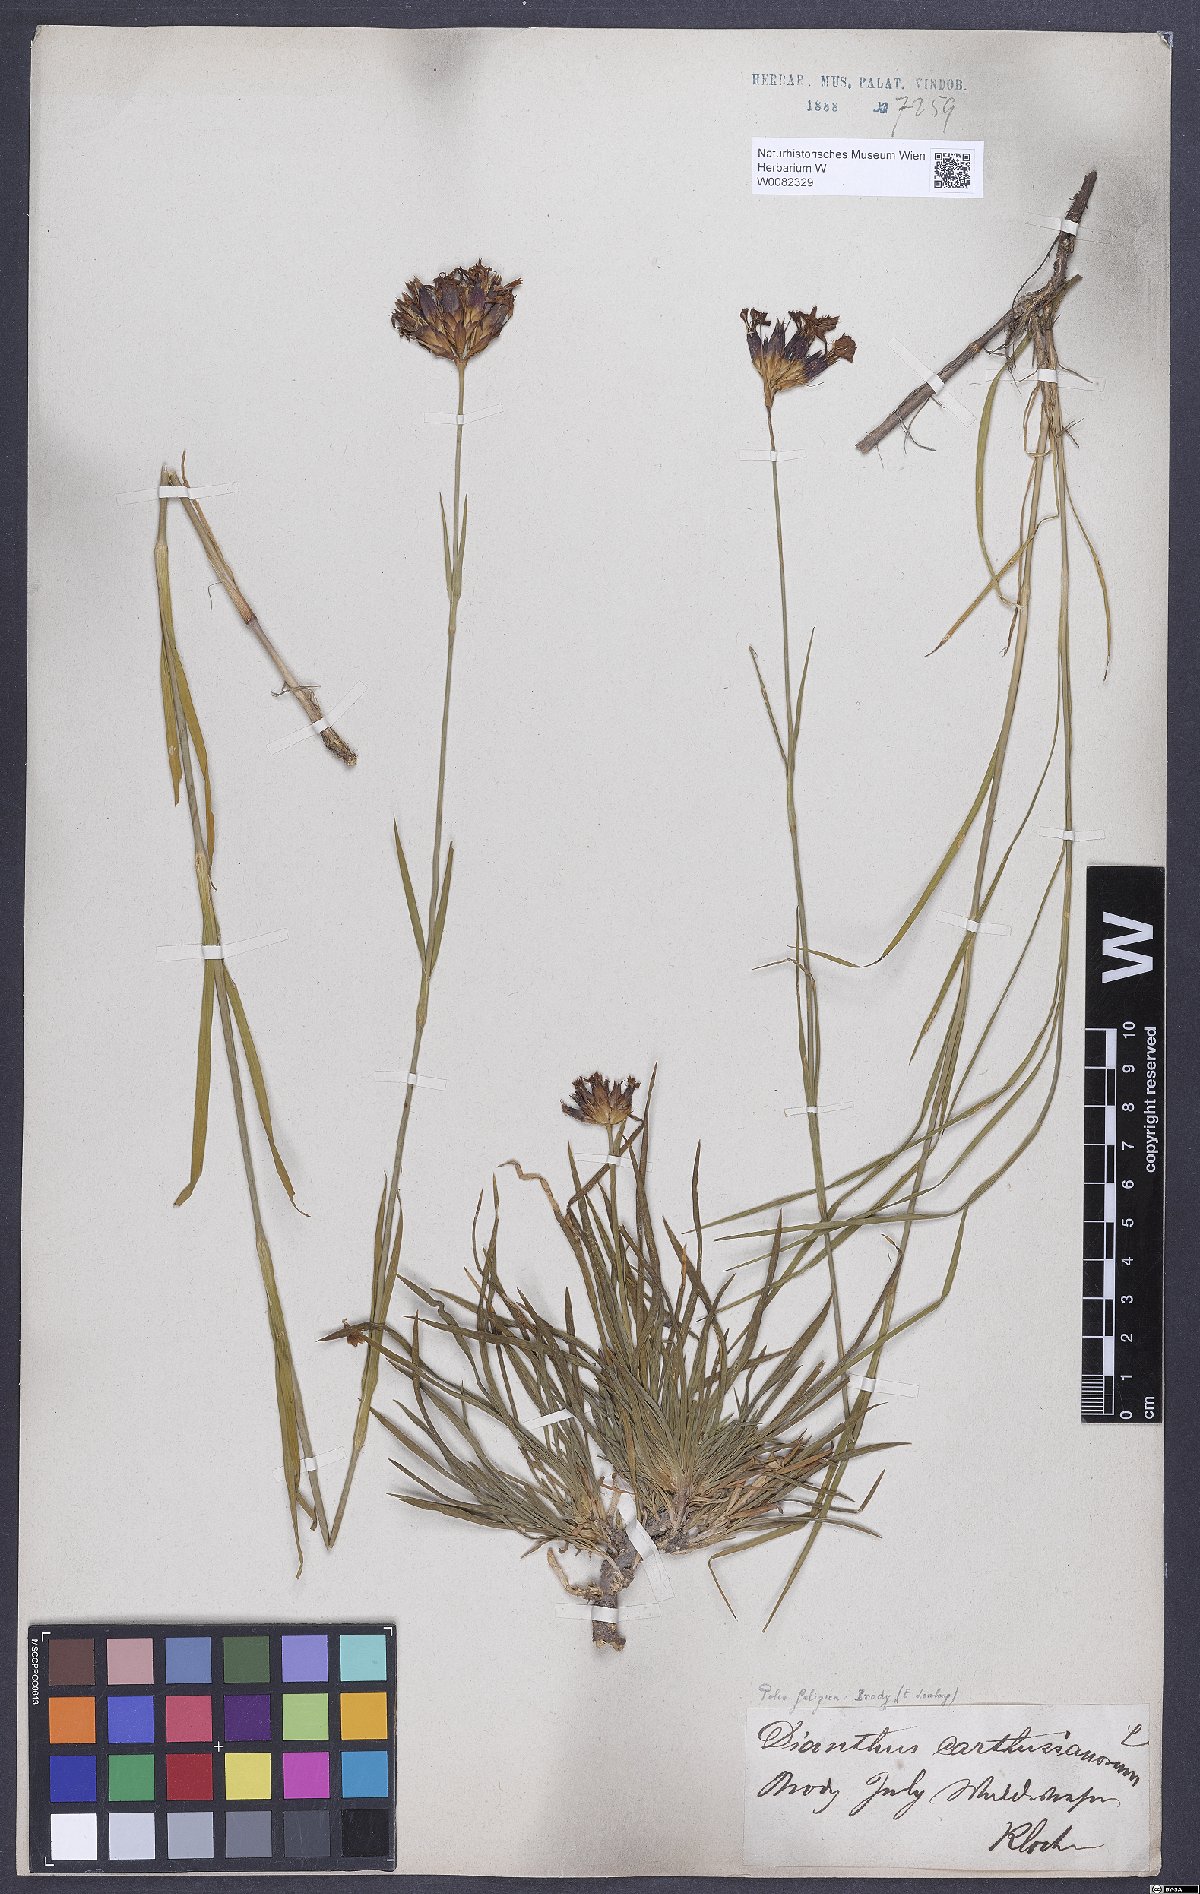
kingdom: Plantae
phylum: Tracheophyta
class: Magnoliopsida
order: Caryophyllales
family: Caryophyllaceae
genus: Dianthus
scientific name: Dianthus carthusianorum
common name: Carthusian pink
